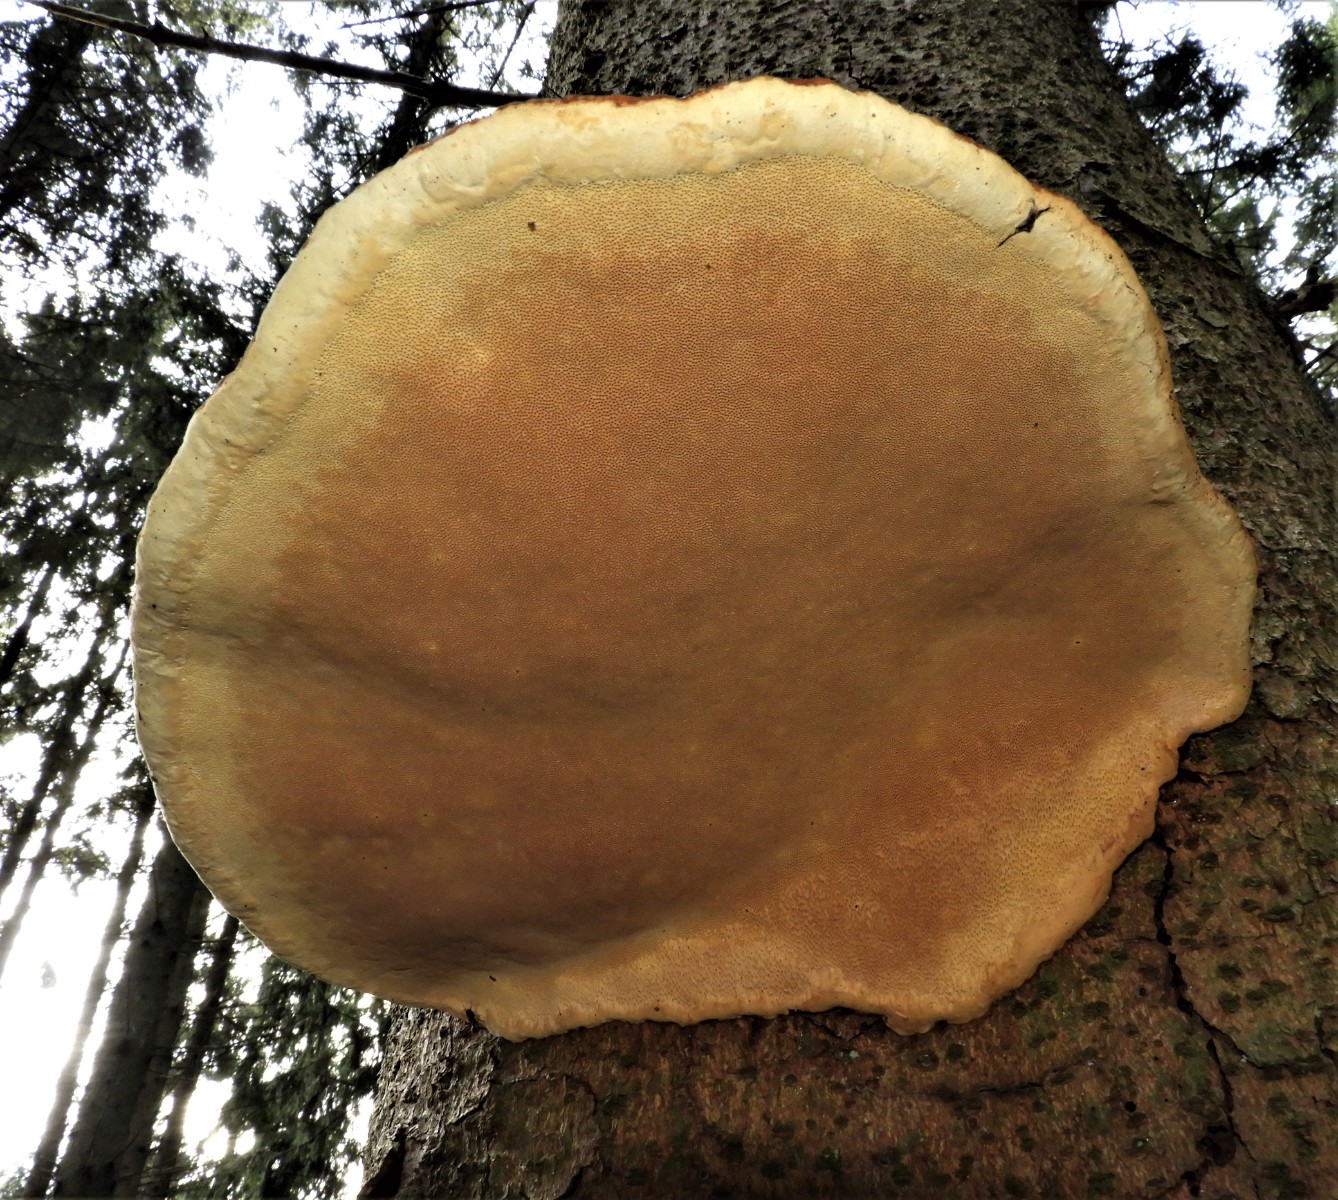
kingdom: Fungi
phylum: Basidiomycota
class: Agaricomycetes
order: Polyporales
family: Fomitopsidaceae
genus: Fomitopsis
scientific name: Fomitopsis pinicola
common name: randbæltet hovporesvamp
